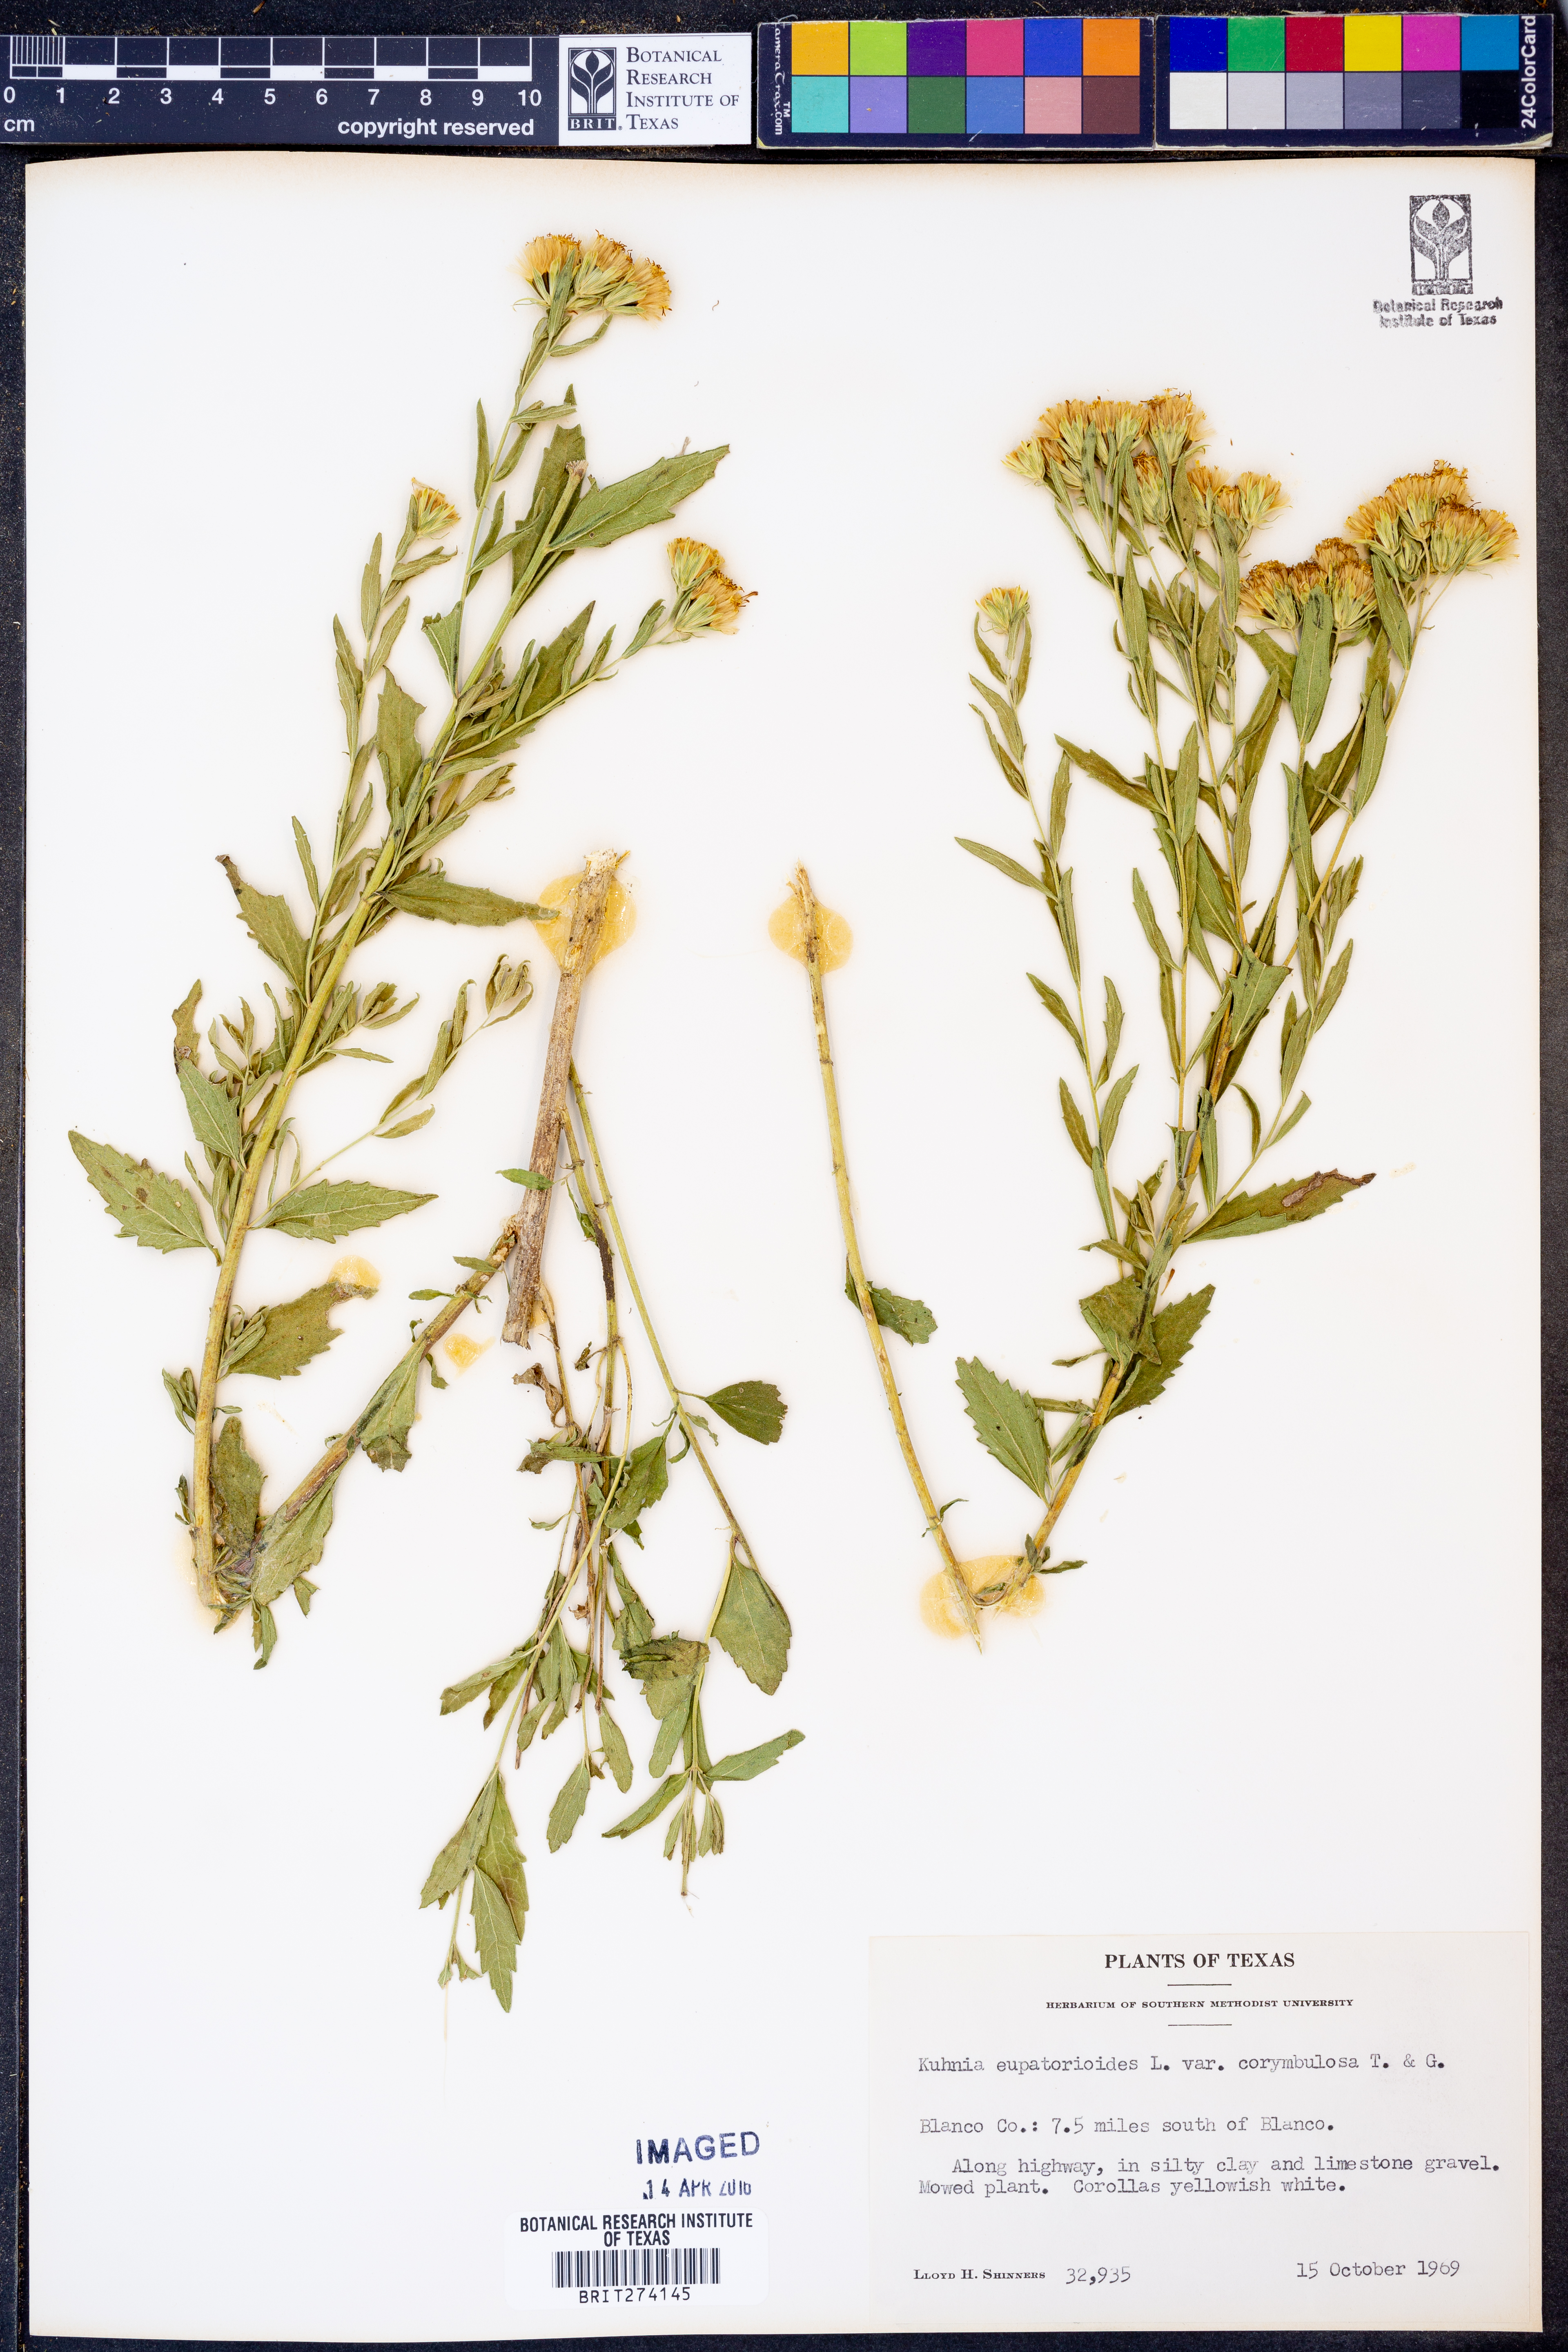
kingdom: Plantae
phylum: Tracheophyta
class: Magnoliopsida
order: Asterales
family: Asteraceae
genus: Brickellia
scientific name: Brickellia suaveolens
